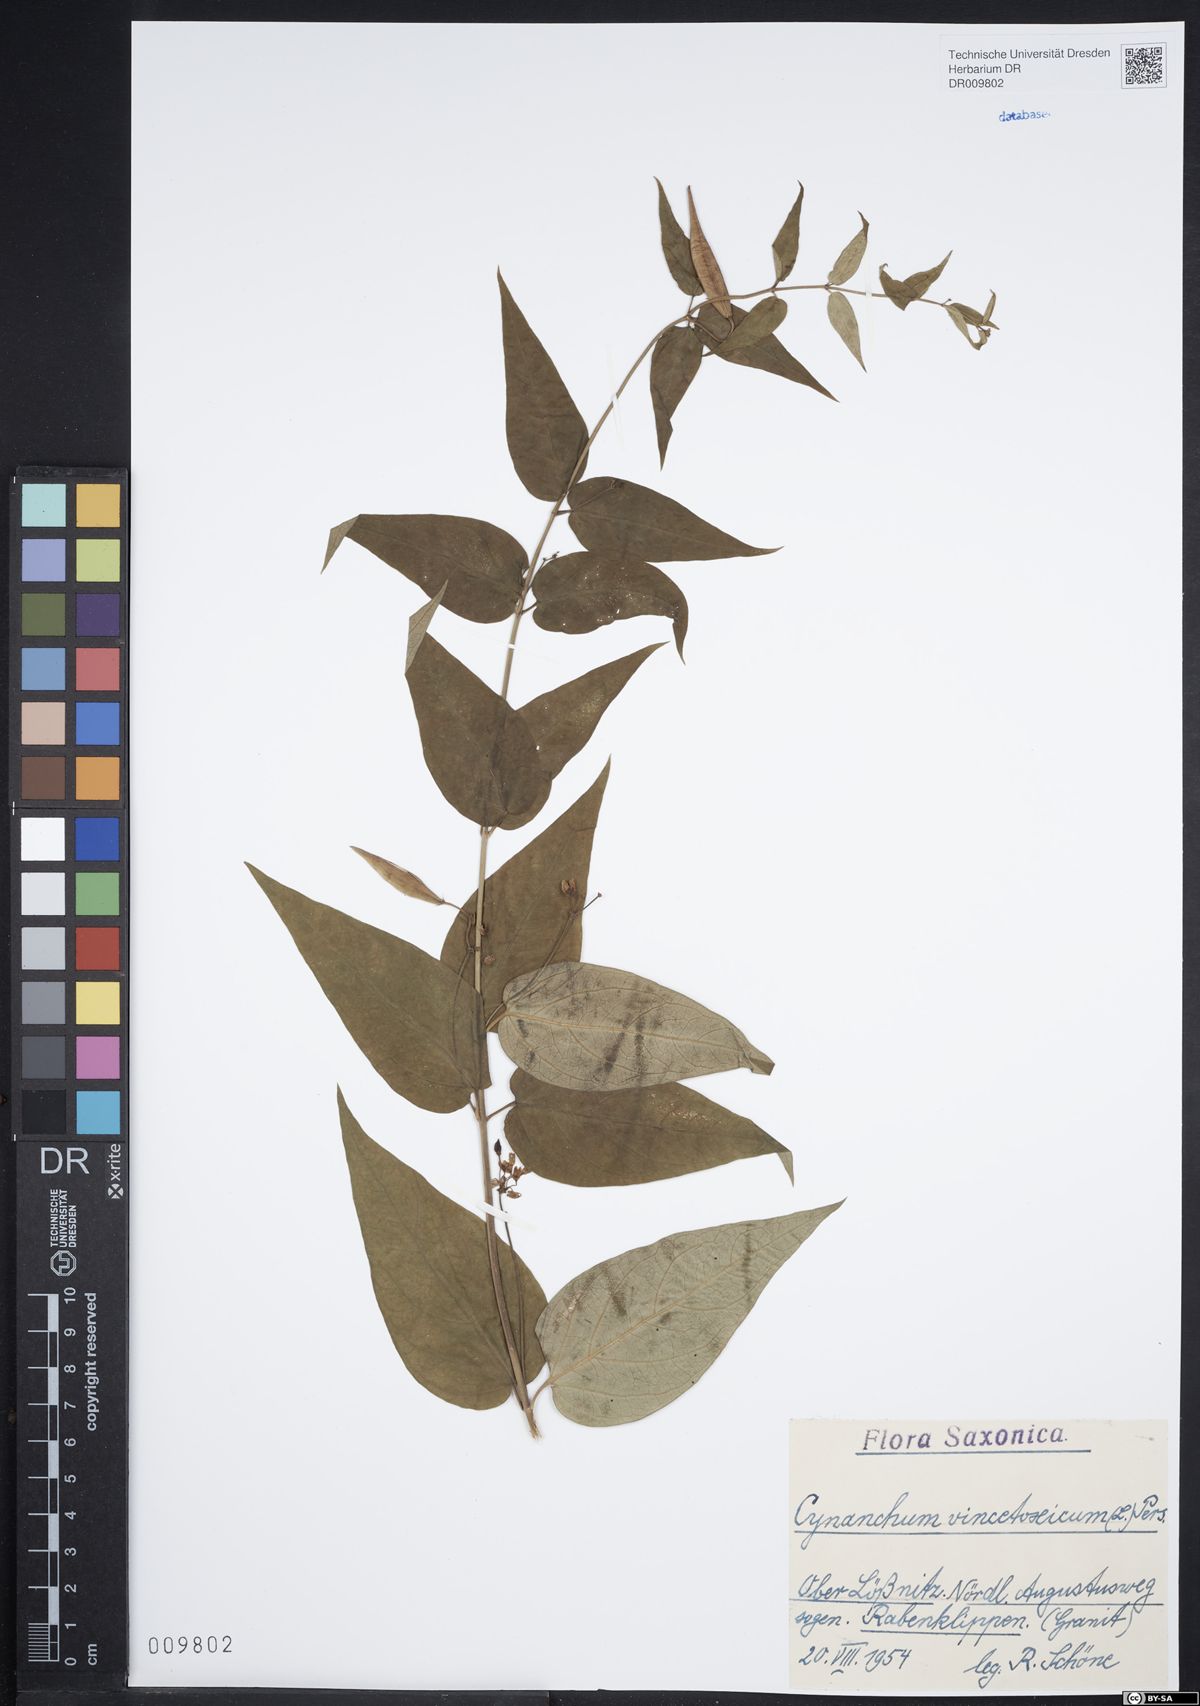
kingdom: Plantae
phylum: Tracheophyta
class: Magnoliopsida
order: Gentianales
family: Apocynaceae
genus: Vincetoxicum
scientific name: Vincetoxicum hirundinaria
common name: White swallowwort
